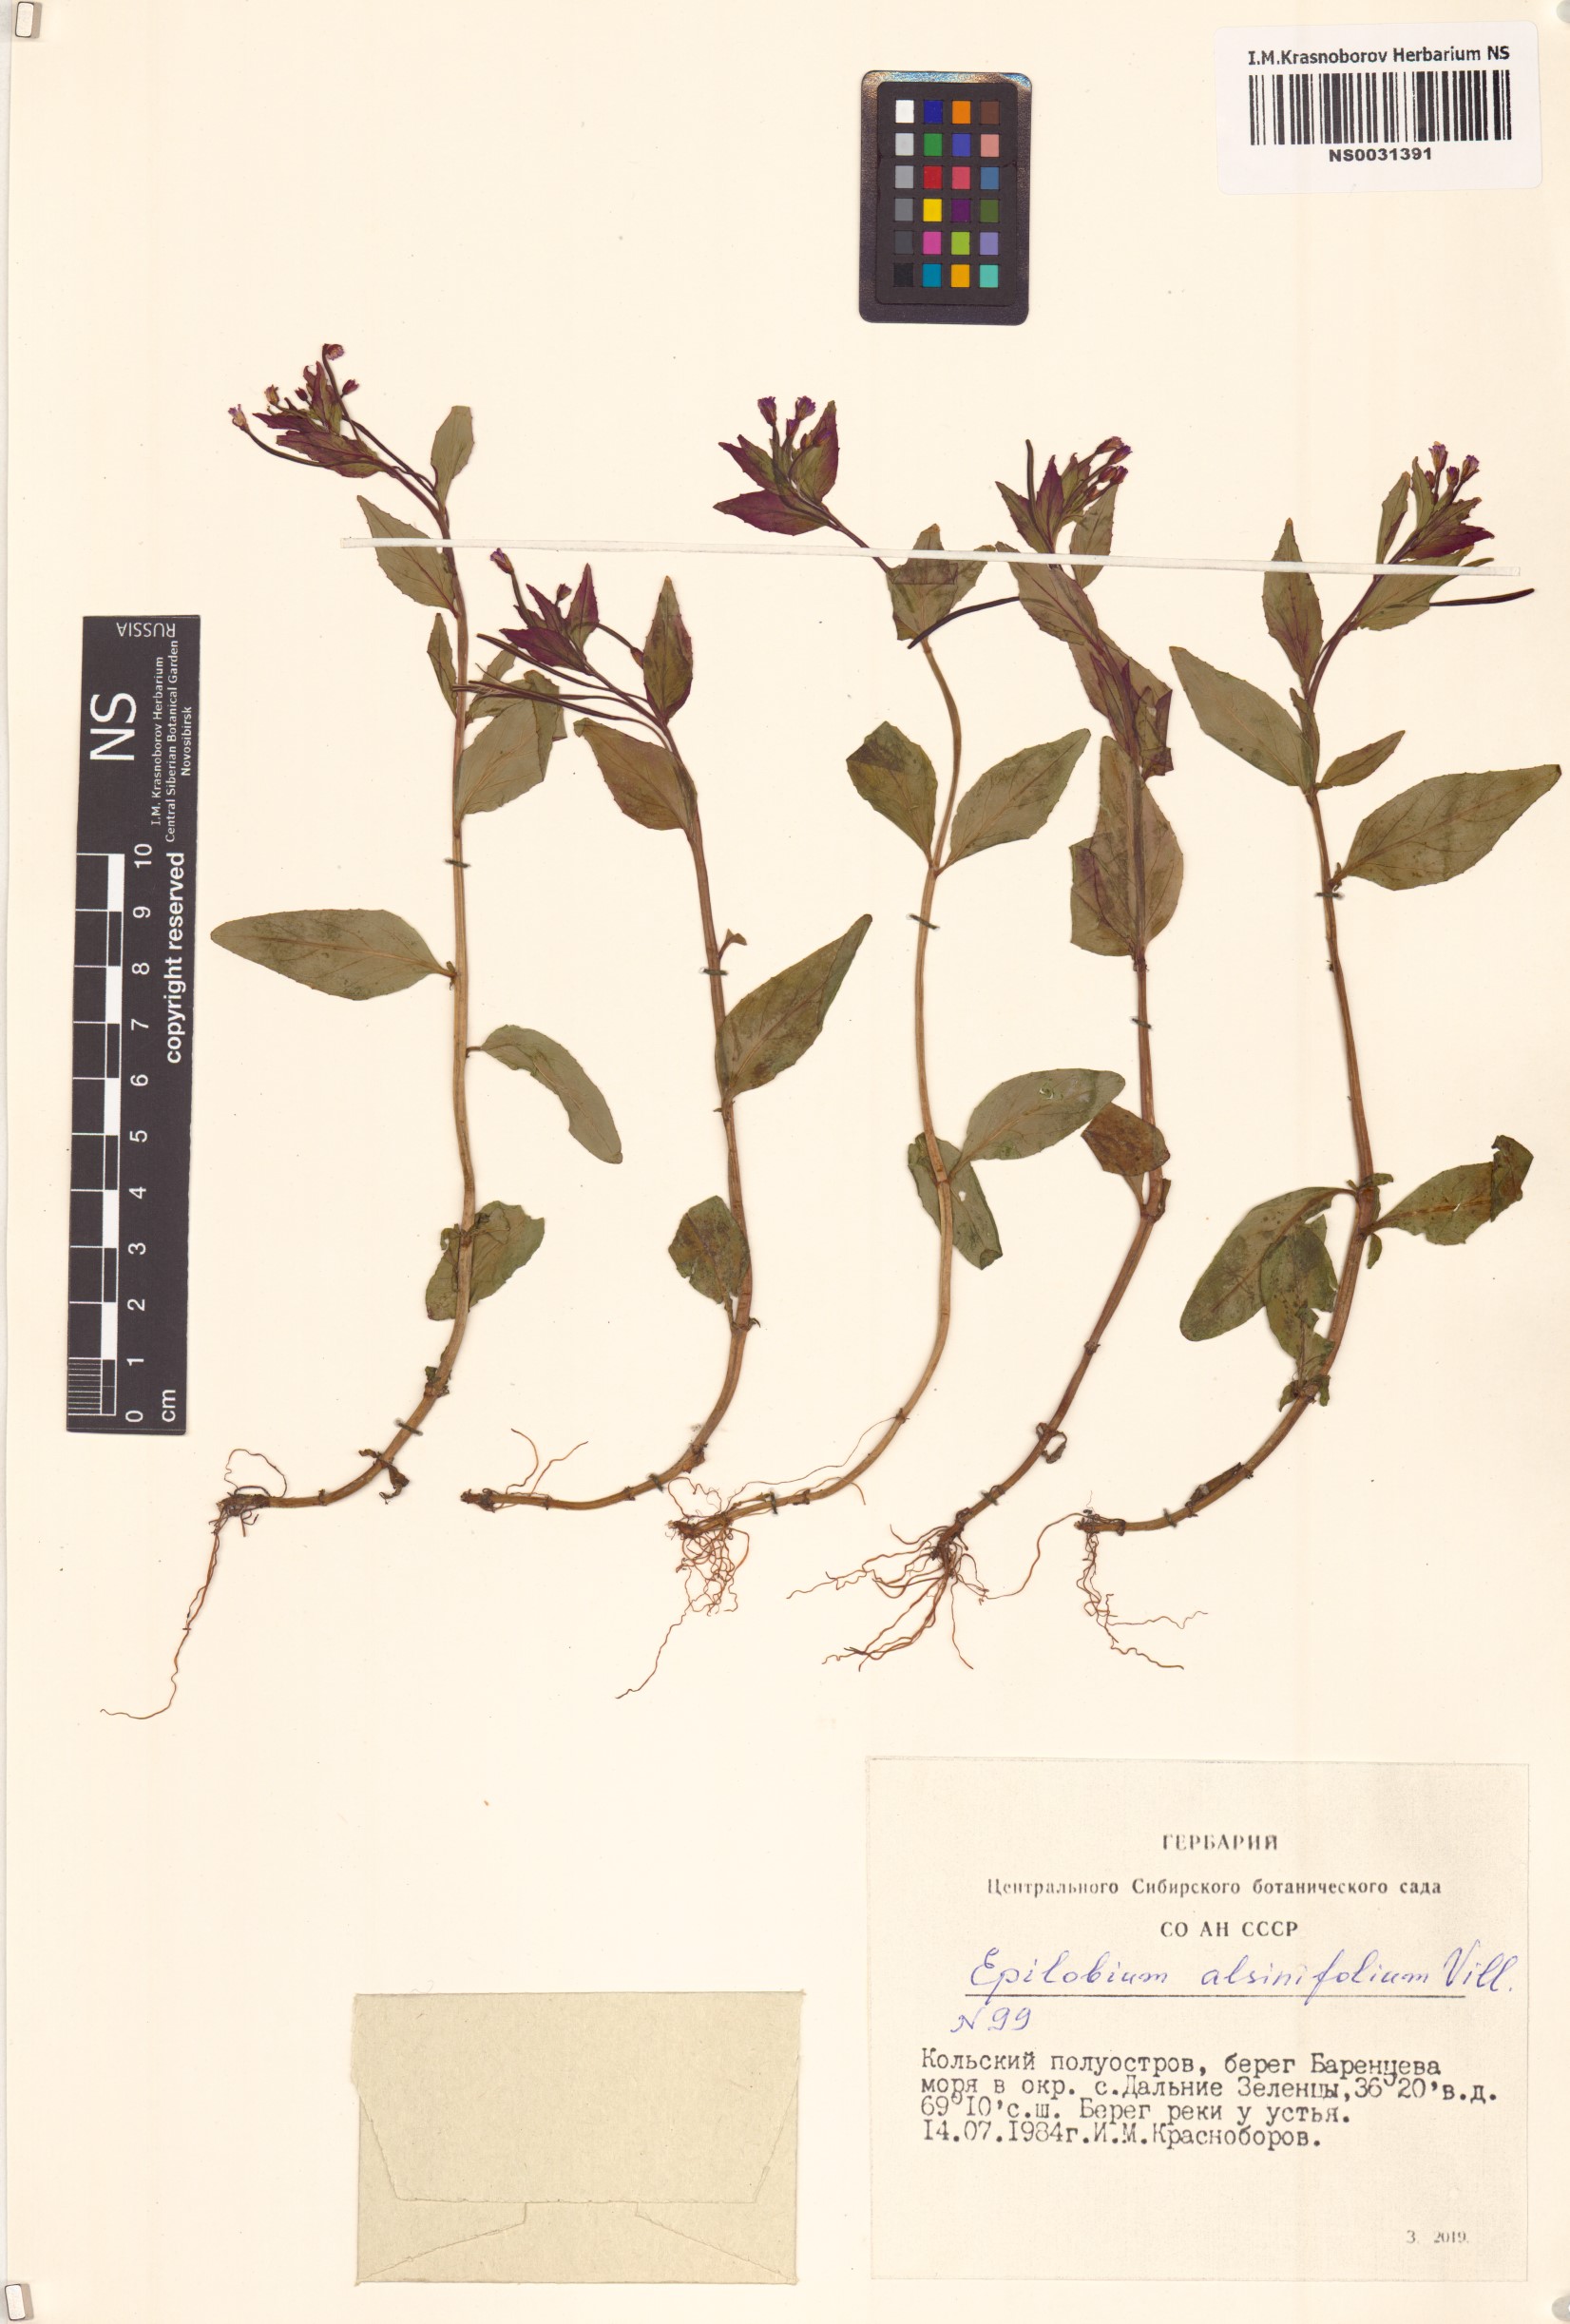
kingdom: Plantae
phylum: Tracheophyta
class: Magnoliopsida
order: Myrtales
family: Onagraceae
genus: Epilobium
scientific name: Epilobium alsinifolium
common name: Chickweed willowherb
